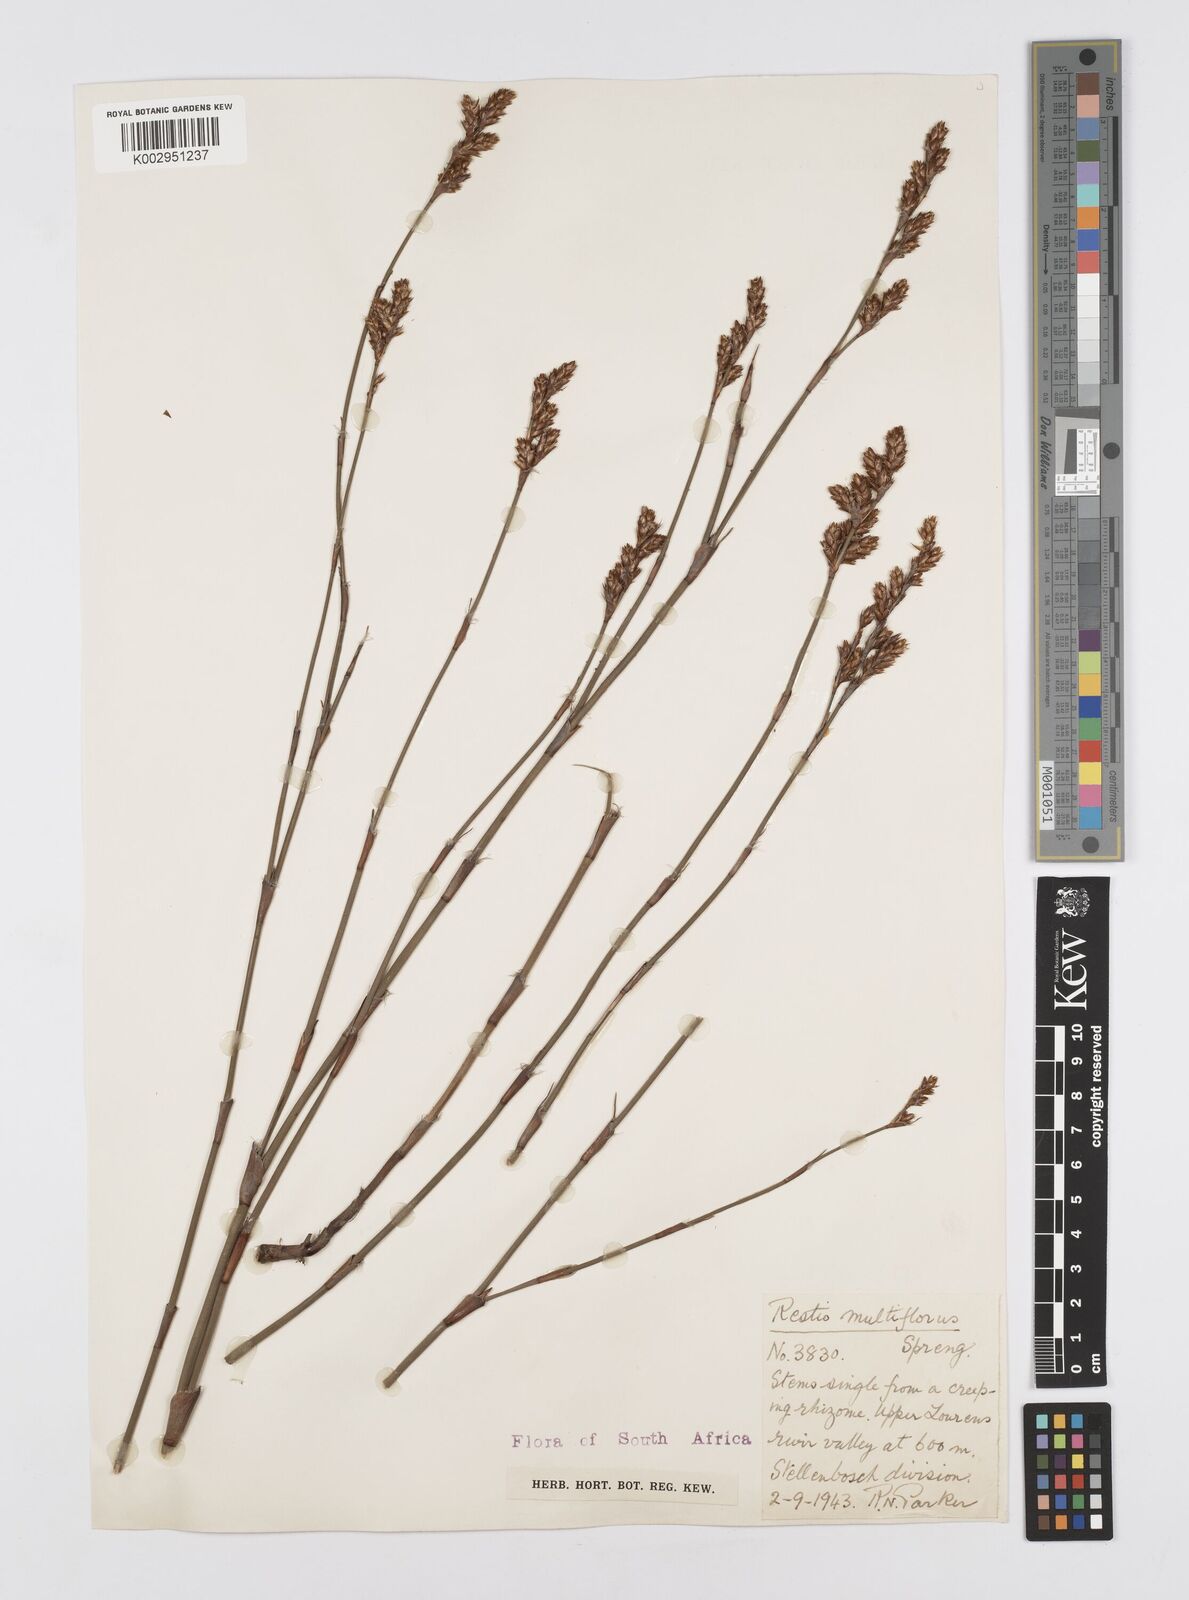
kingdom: Plantae
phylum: Tracheophyta
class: Liliopsida
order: Poales
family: Restionaceae
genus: Restio
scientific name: Restio multiflorus
